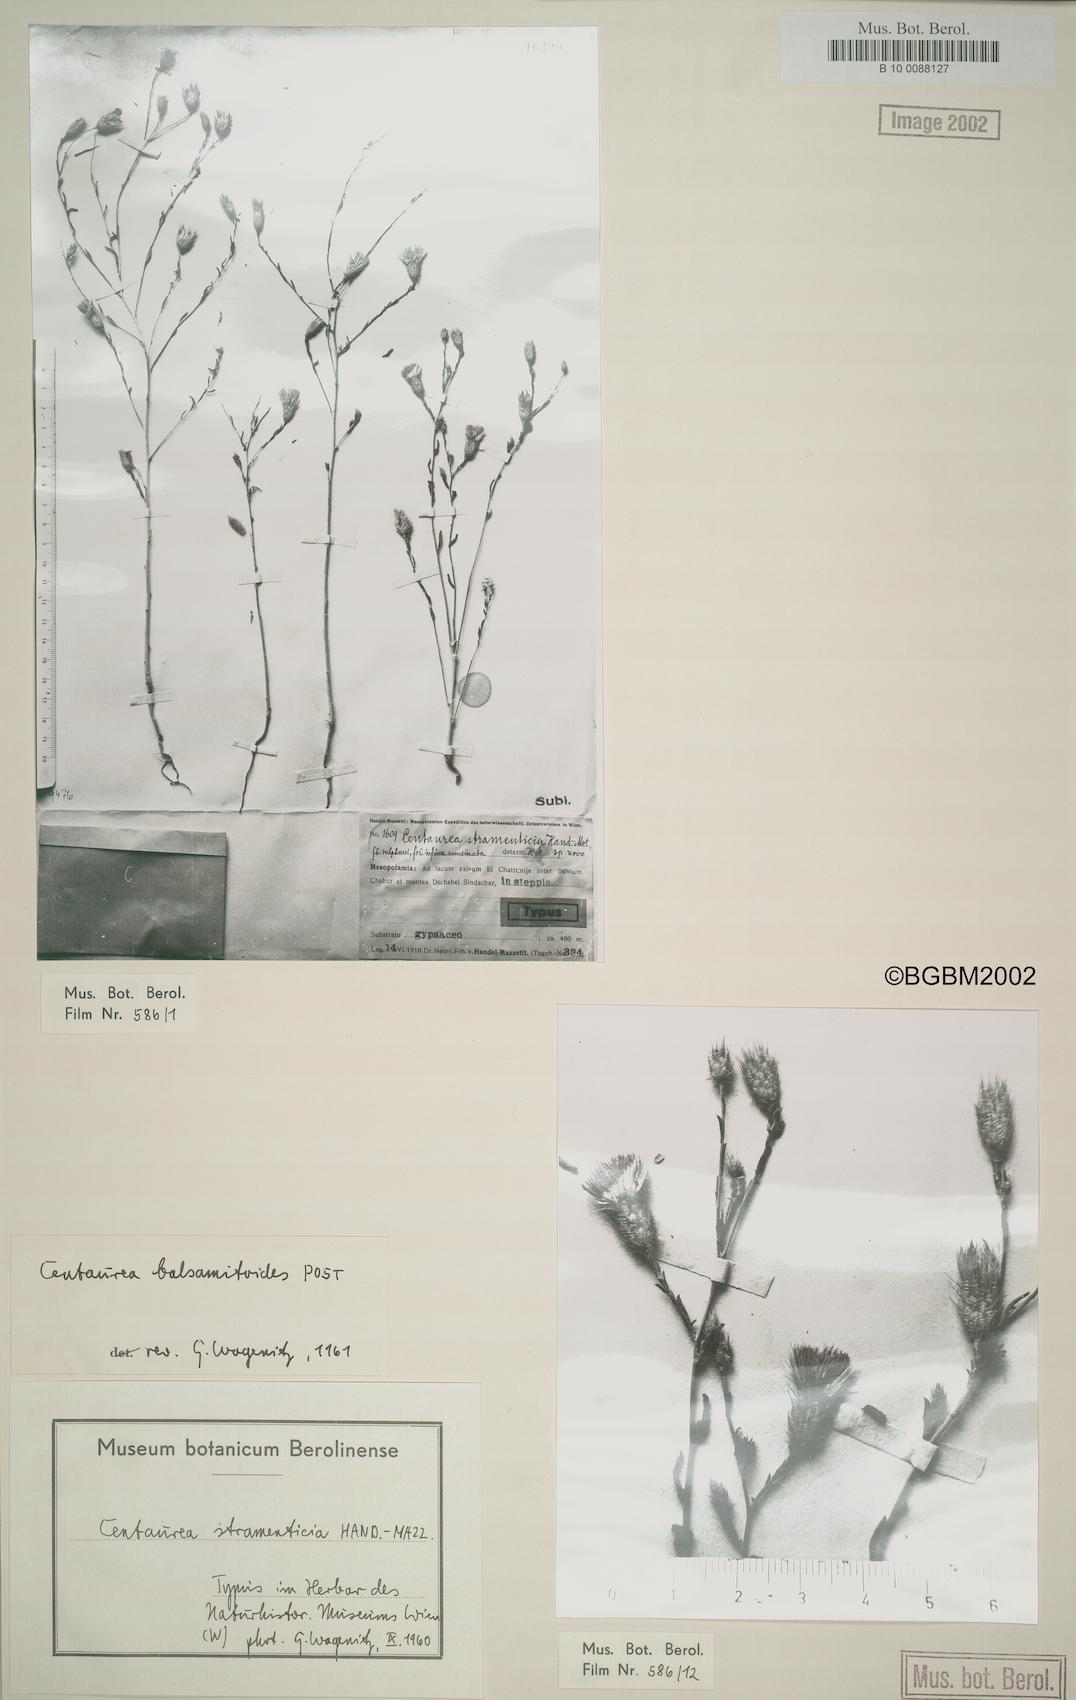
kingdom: Plantae
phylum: Tracheophyta
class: Magnoliopsida
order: Asterales
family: Asteraceae
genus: Stizolophus
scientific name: Stizolophus balsamitoides
